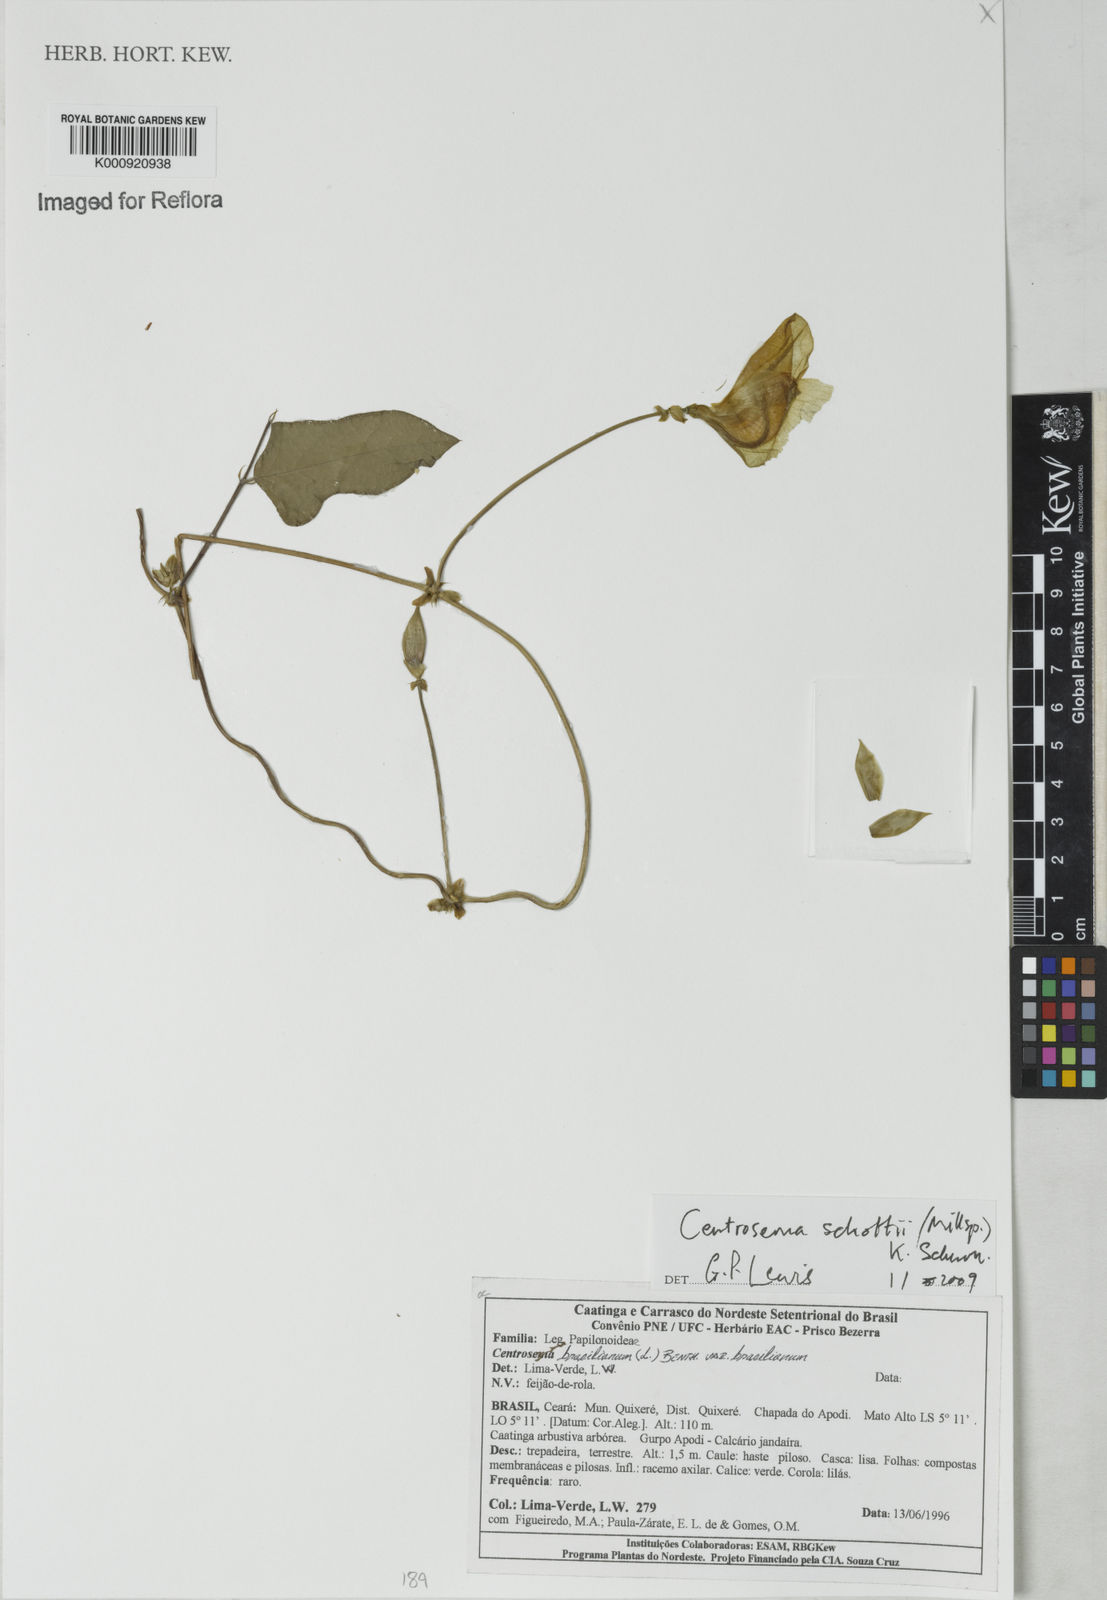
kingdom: Plantae
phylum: Tracheophyta
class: Magnoliopsida
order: Fabales
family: Fabaceae
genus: Centrosema
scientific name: Centrosema schottii
